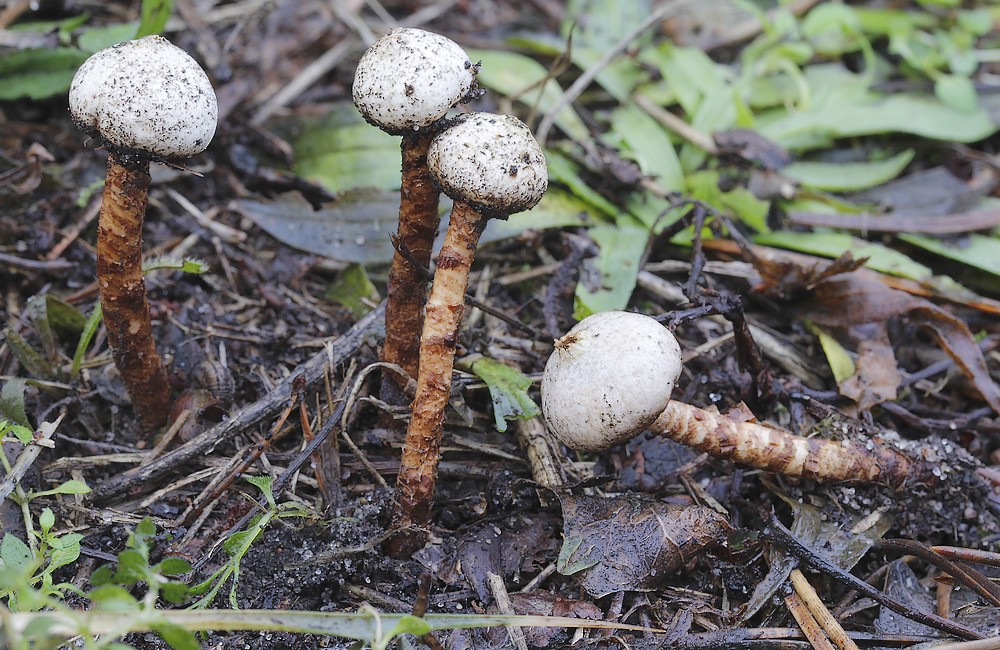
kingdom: Fungi
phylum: Basidiomycota
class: Agaricomycetes
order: Agaricales
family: Agaricaceae
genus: Tulostoma
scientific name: Tulostoma winterhoffii
